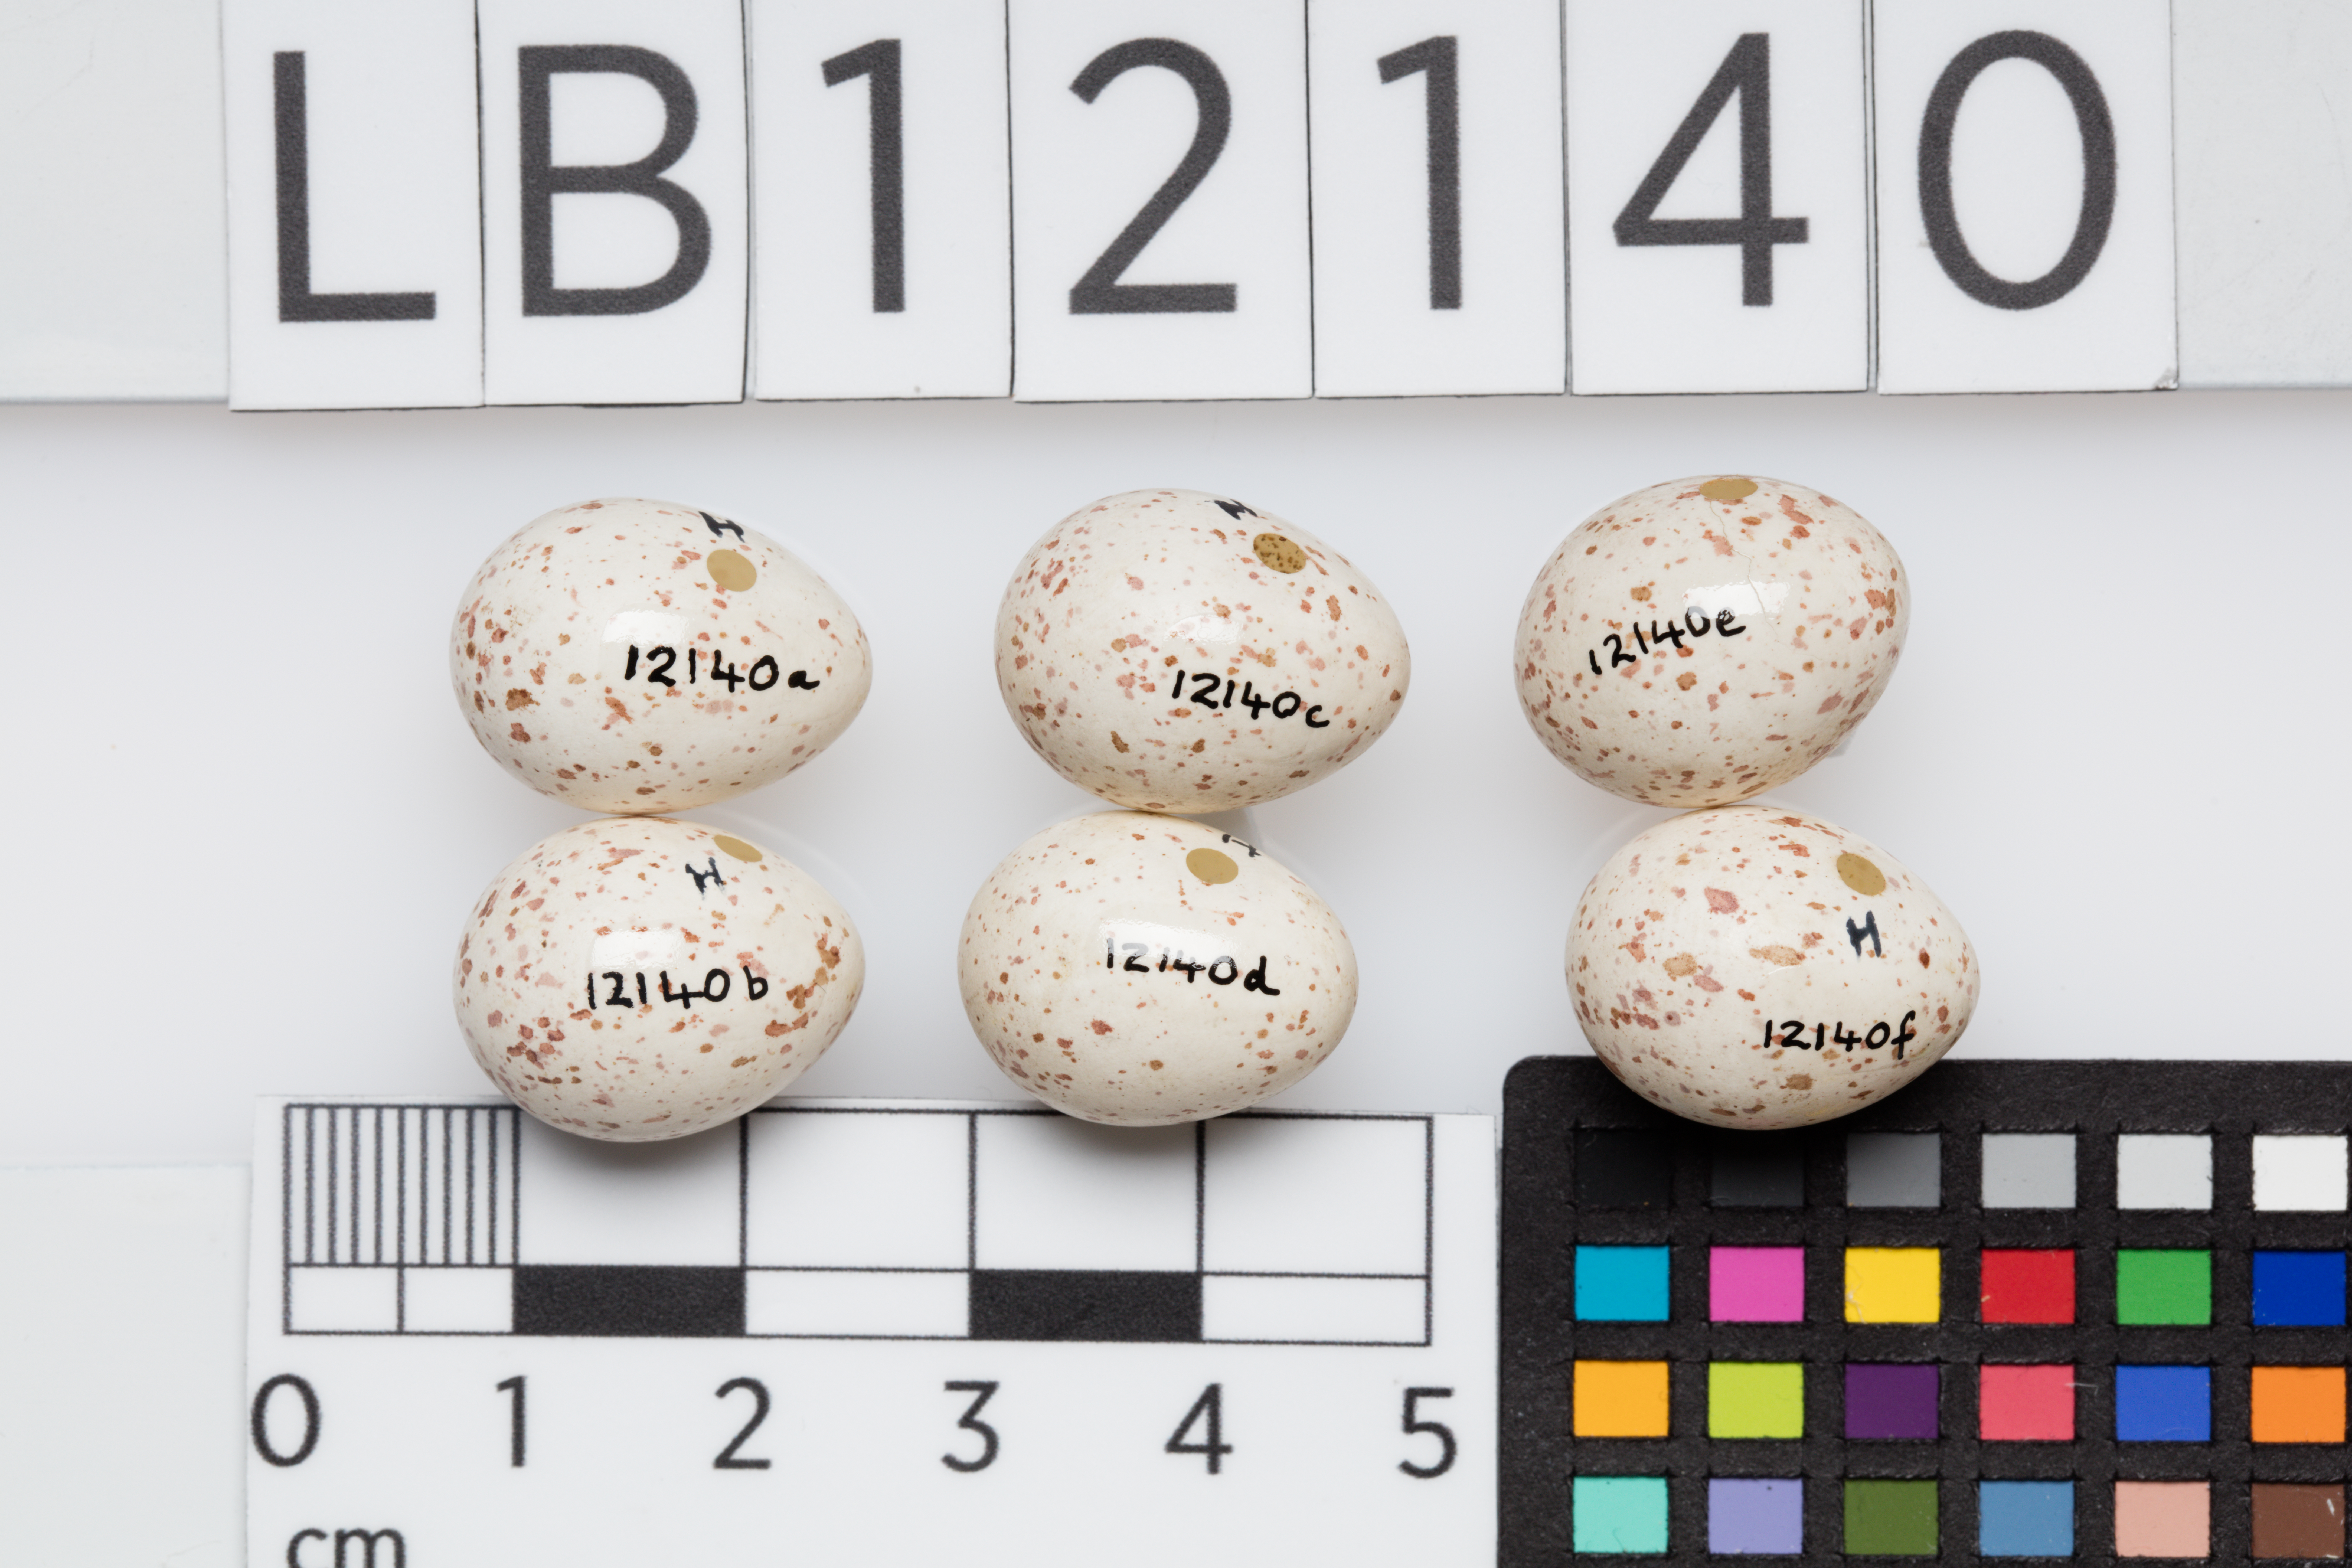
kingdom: Animalia
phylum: Chordata
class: Aves
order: Passeriformes
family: Paridae
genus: Parus
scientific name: Parus major
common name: Great tit
